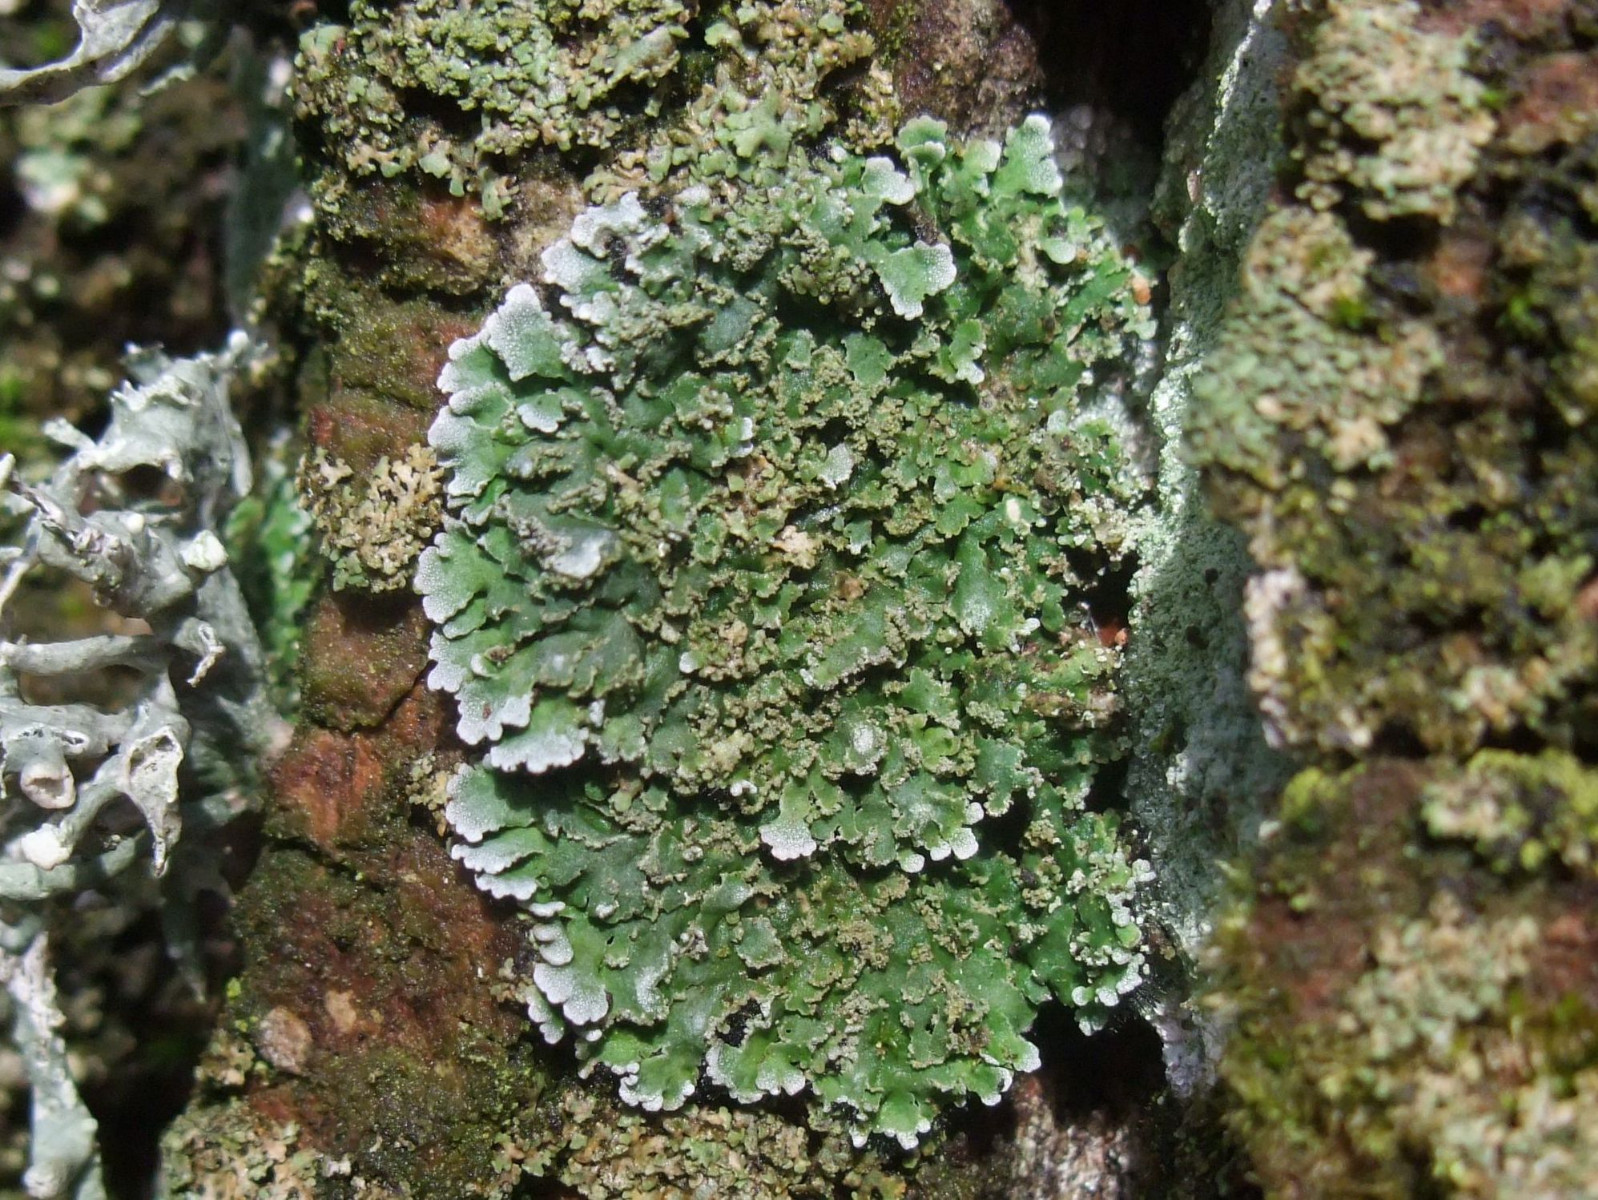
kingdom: Fungi
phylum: Ascomycota
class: Lecanoromycetes
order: Caliciales
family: Physciaceae
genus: Physconia
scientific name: Physconia perisidiosa
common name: liden dugrosetlav
